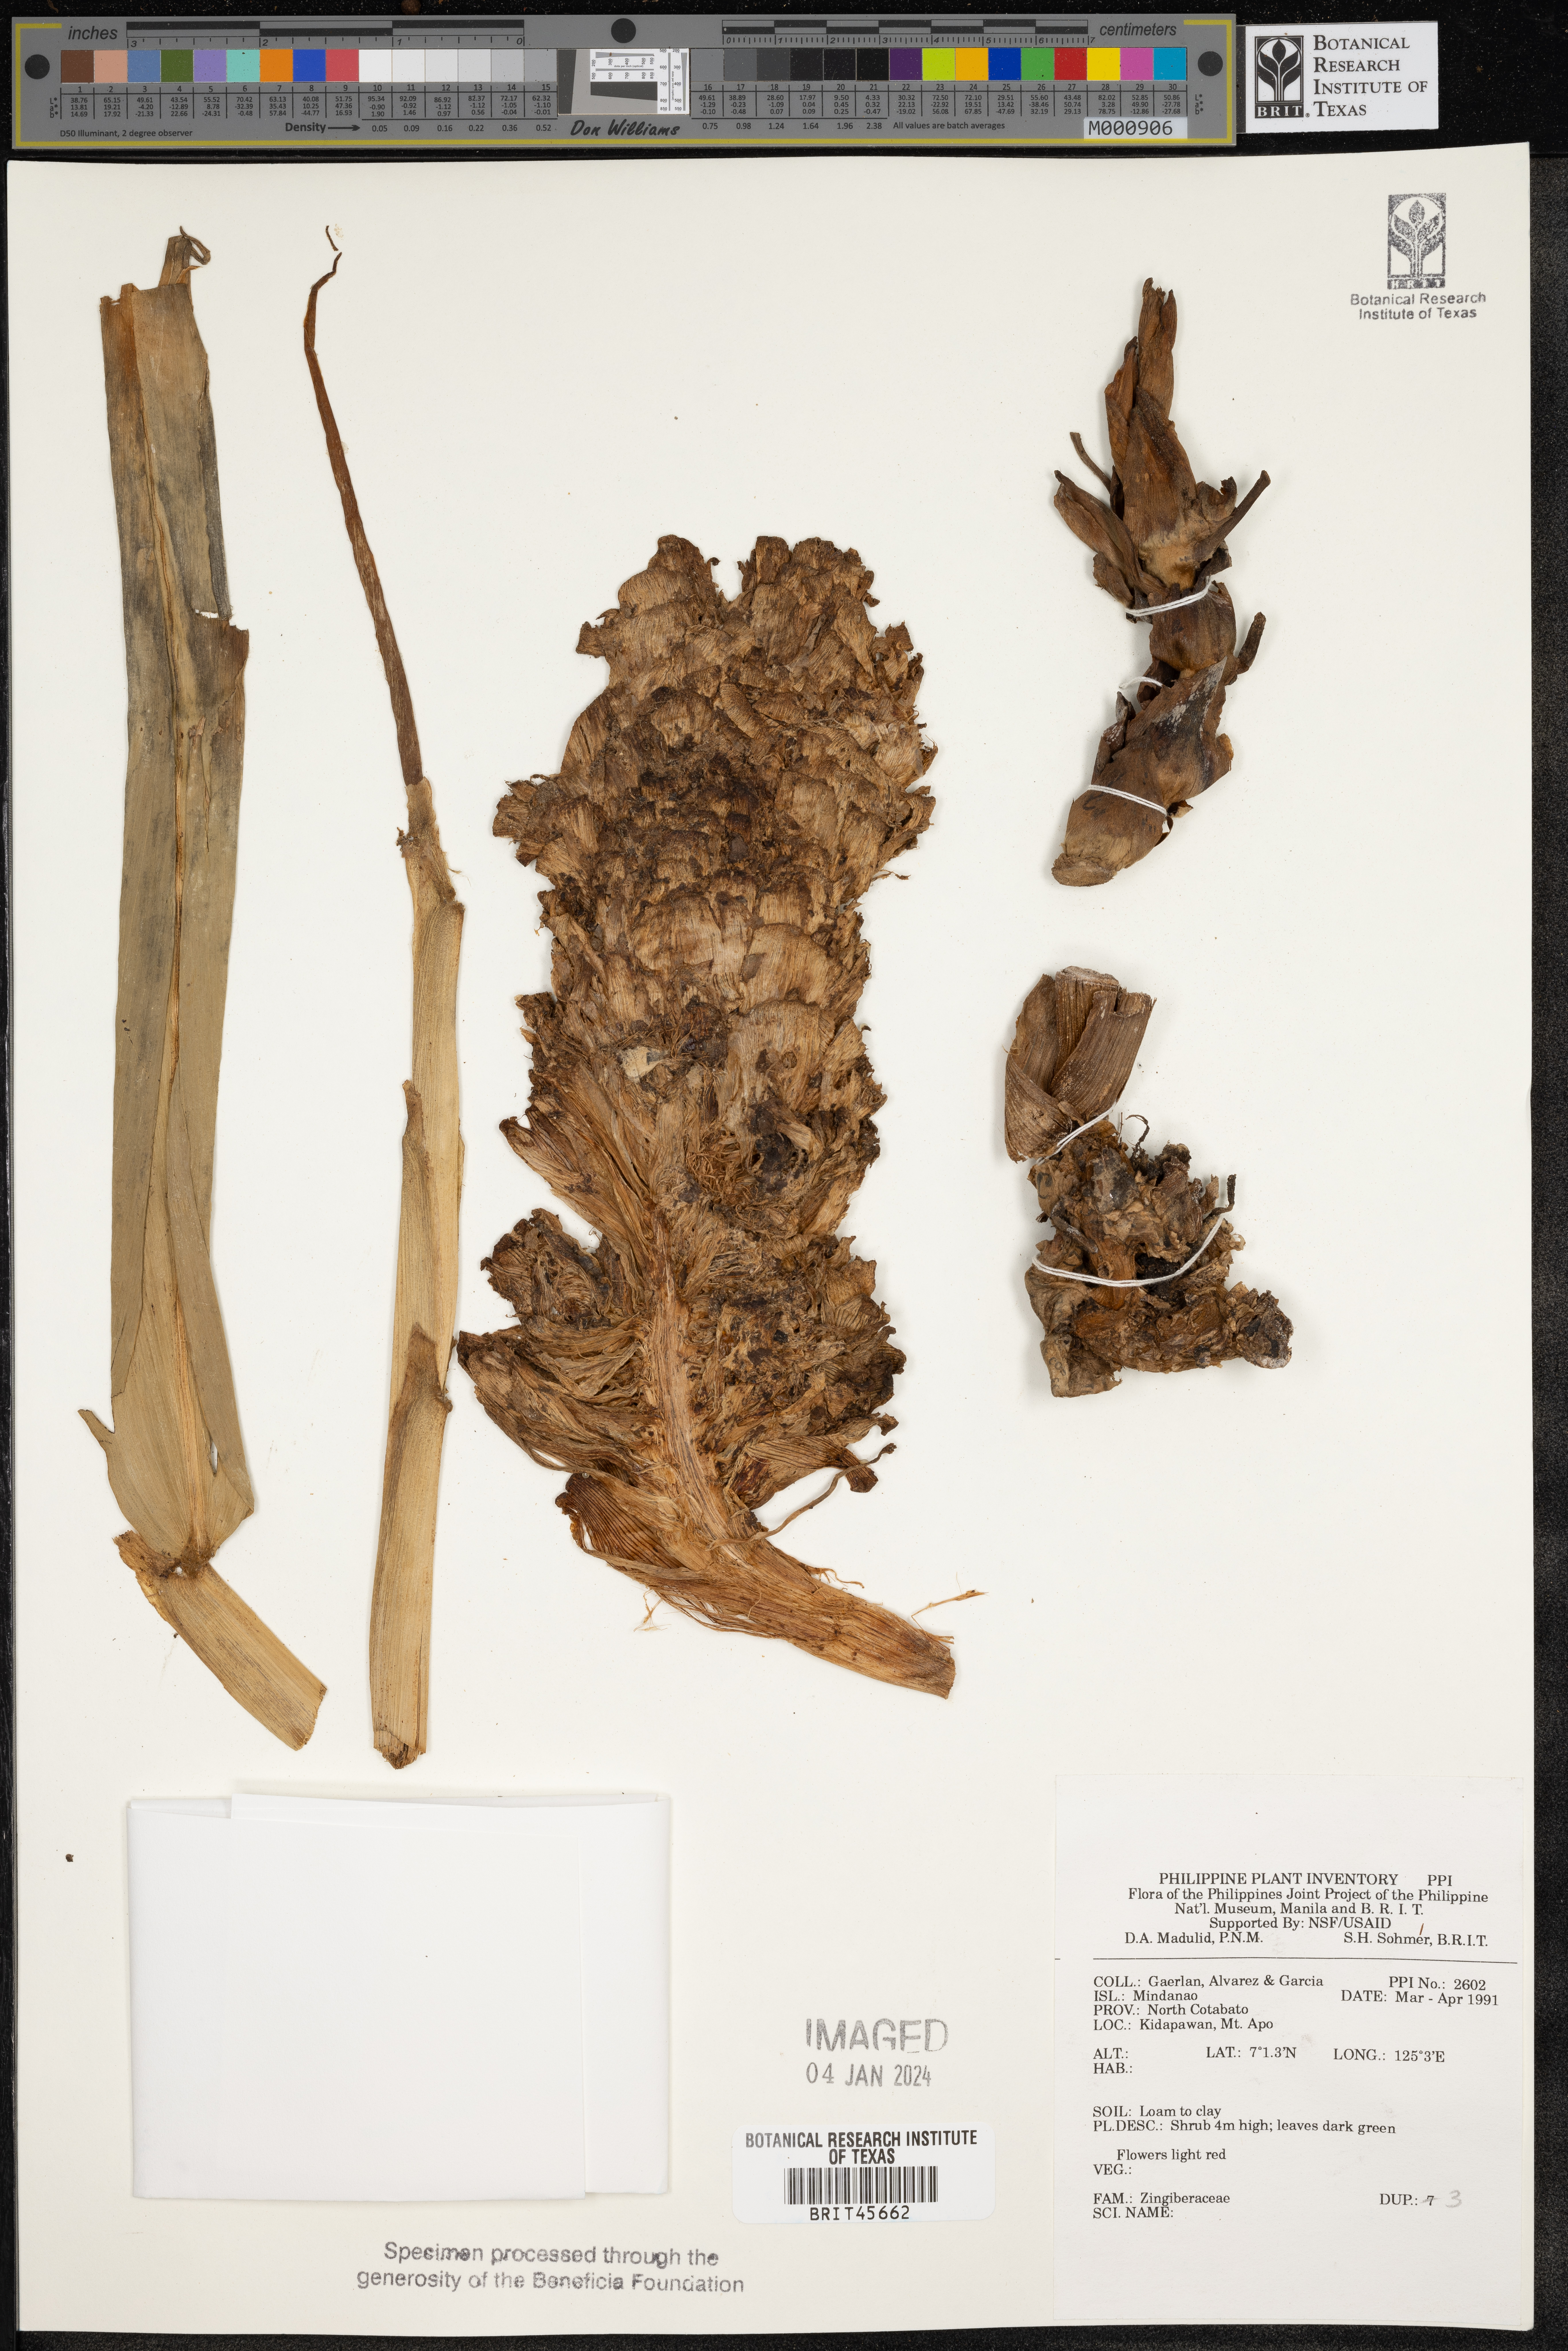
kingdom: Plantae
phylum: Tracheophyta
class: Liliopsida
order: Zingiberales
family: Zingiberaceae
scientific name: Zingiberaceae
